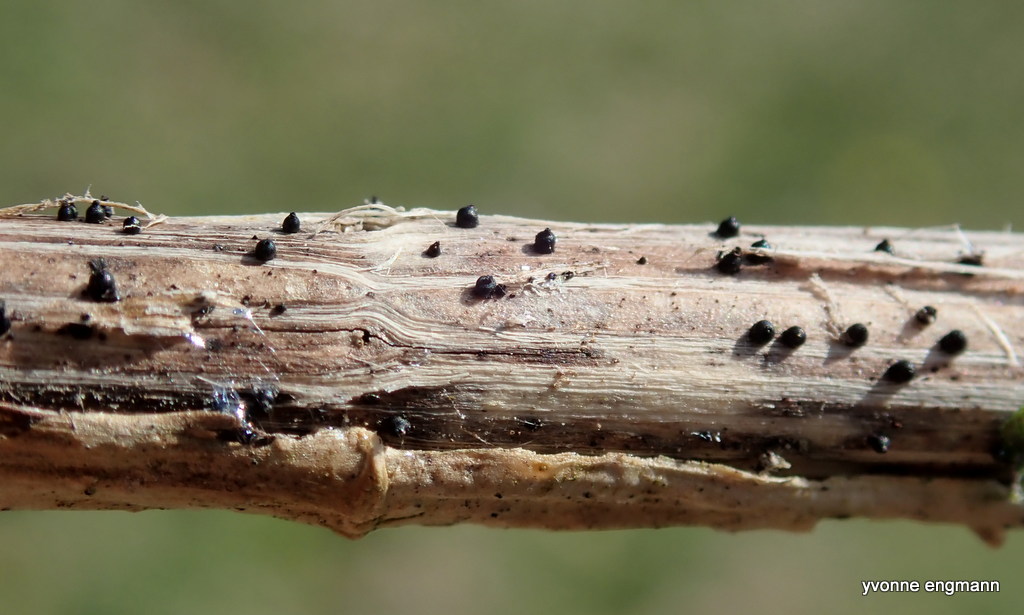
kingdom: Fungi
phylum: Ascomycota
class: Dothideomycetes
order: Pleosporales
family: Leptosphaeriaceae
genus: Leptosphaeria
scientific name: Leptosphaeria
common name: kulkegle
